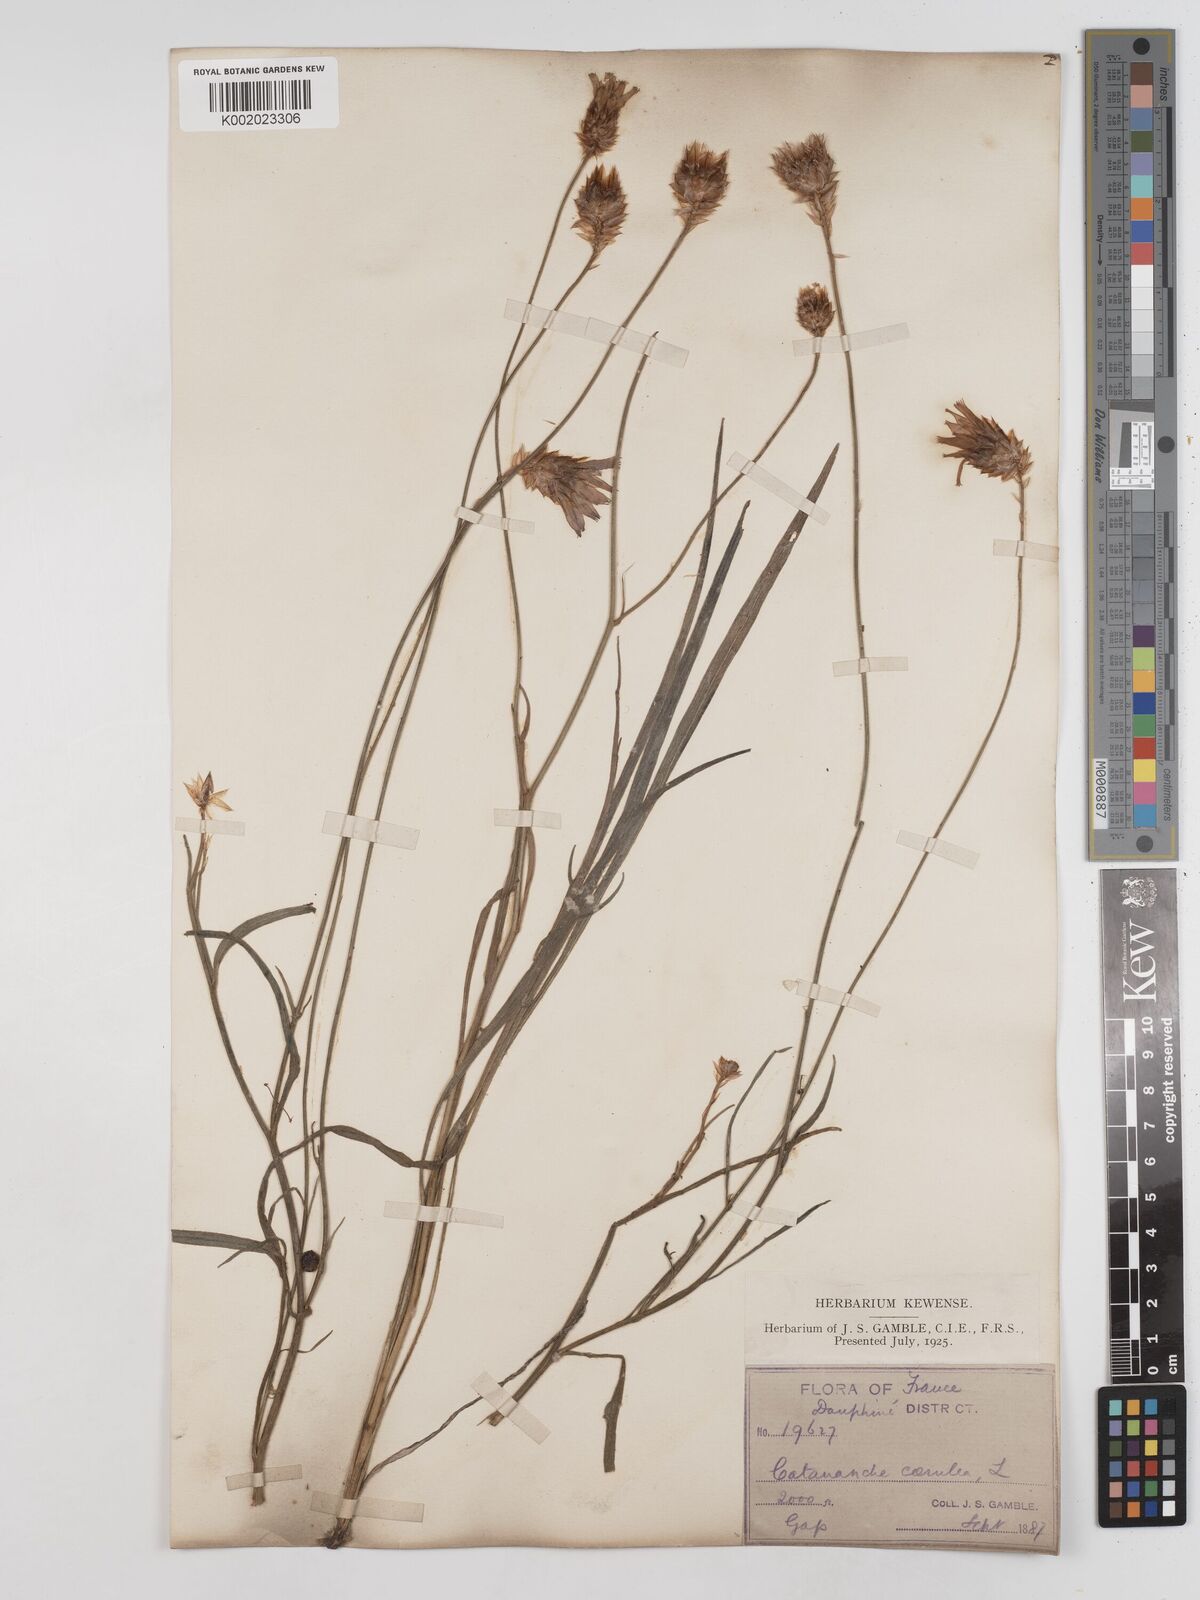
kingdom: Plantae
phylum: Tracheophyta
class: Magnoliopsida
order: Asterales
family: Asteraceae
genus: Catananche
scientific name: Catananche caerulea
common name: Blue cupidone
